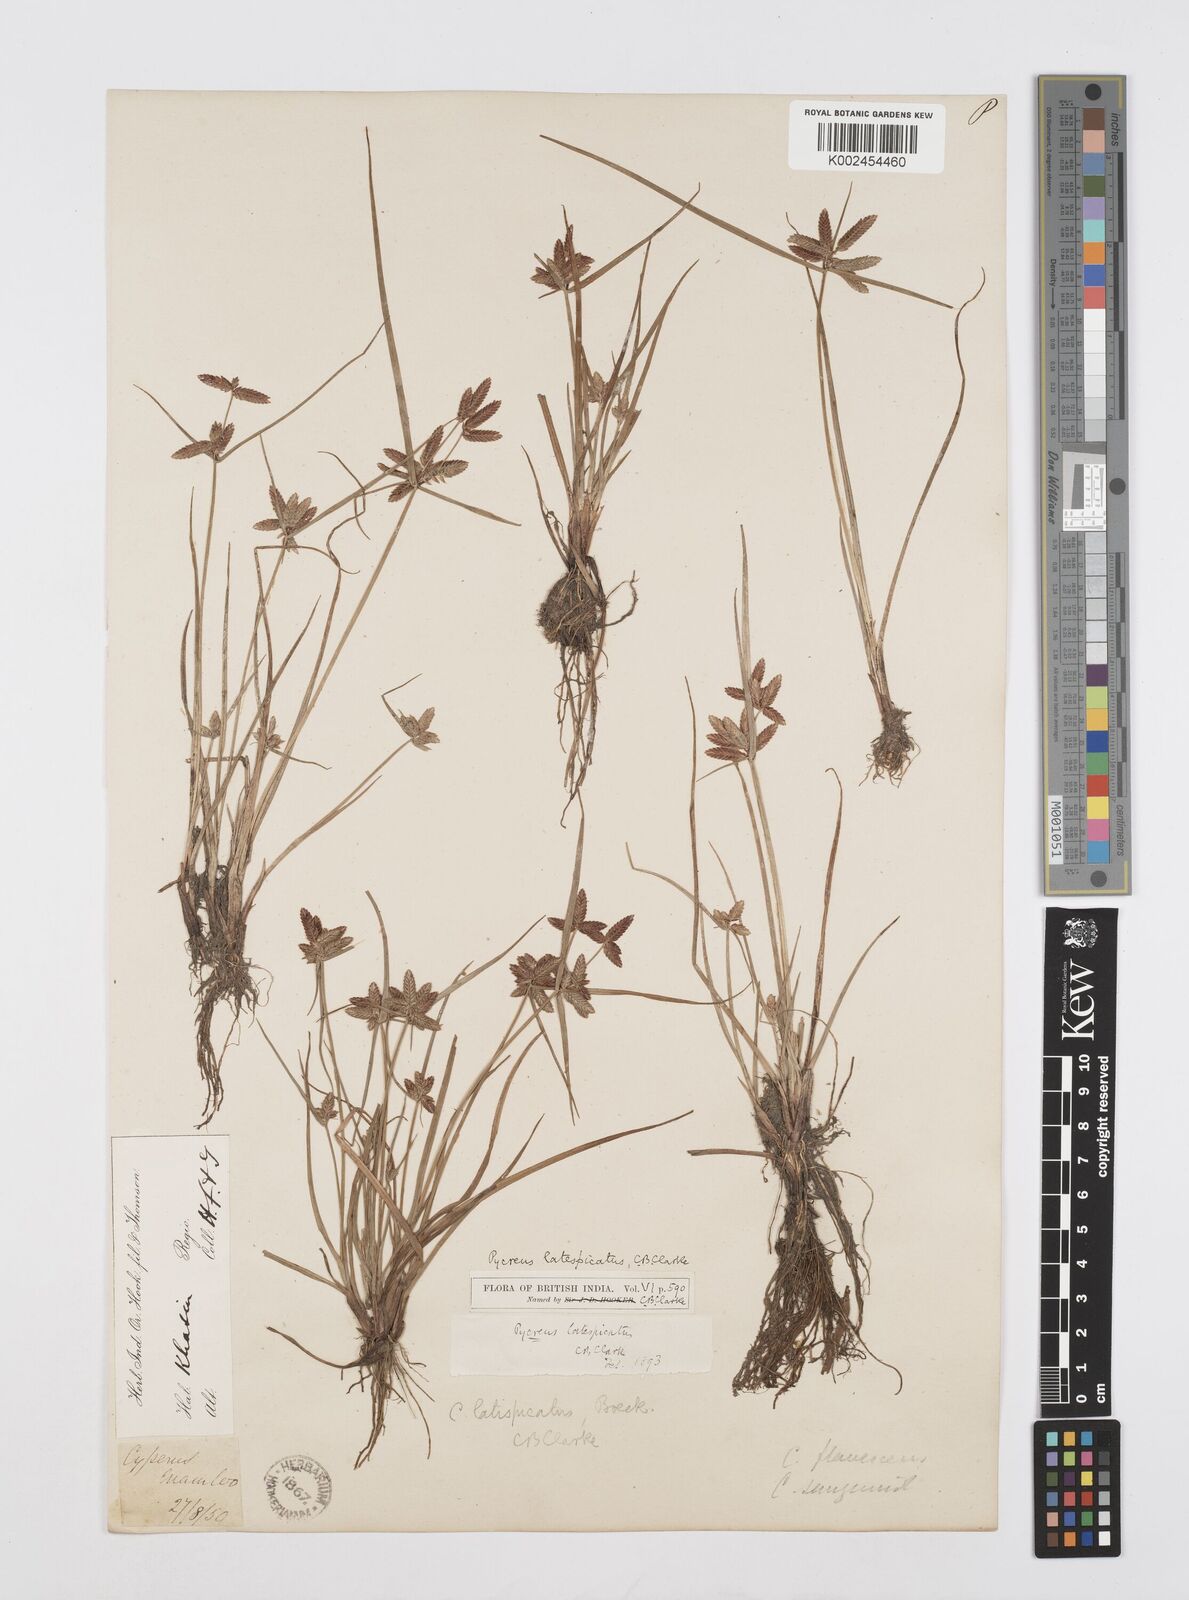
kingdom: Plantae
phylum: Tracheophyta
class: Liliopsida
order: Poales
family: Cyperaceae
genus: Cyperus
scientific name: Cyperus diaphanus
